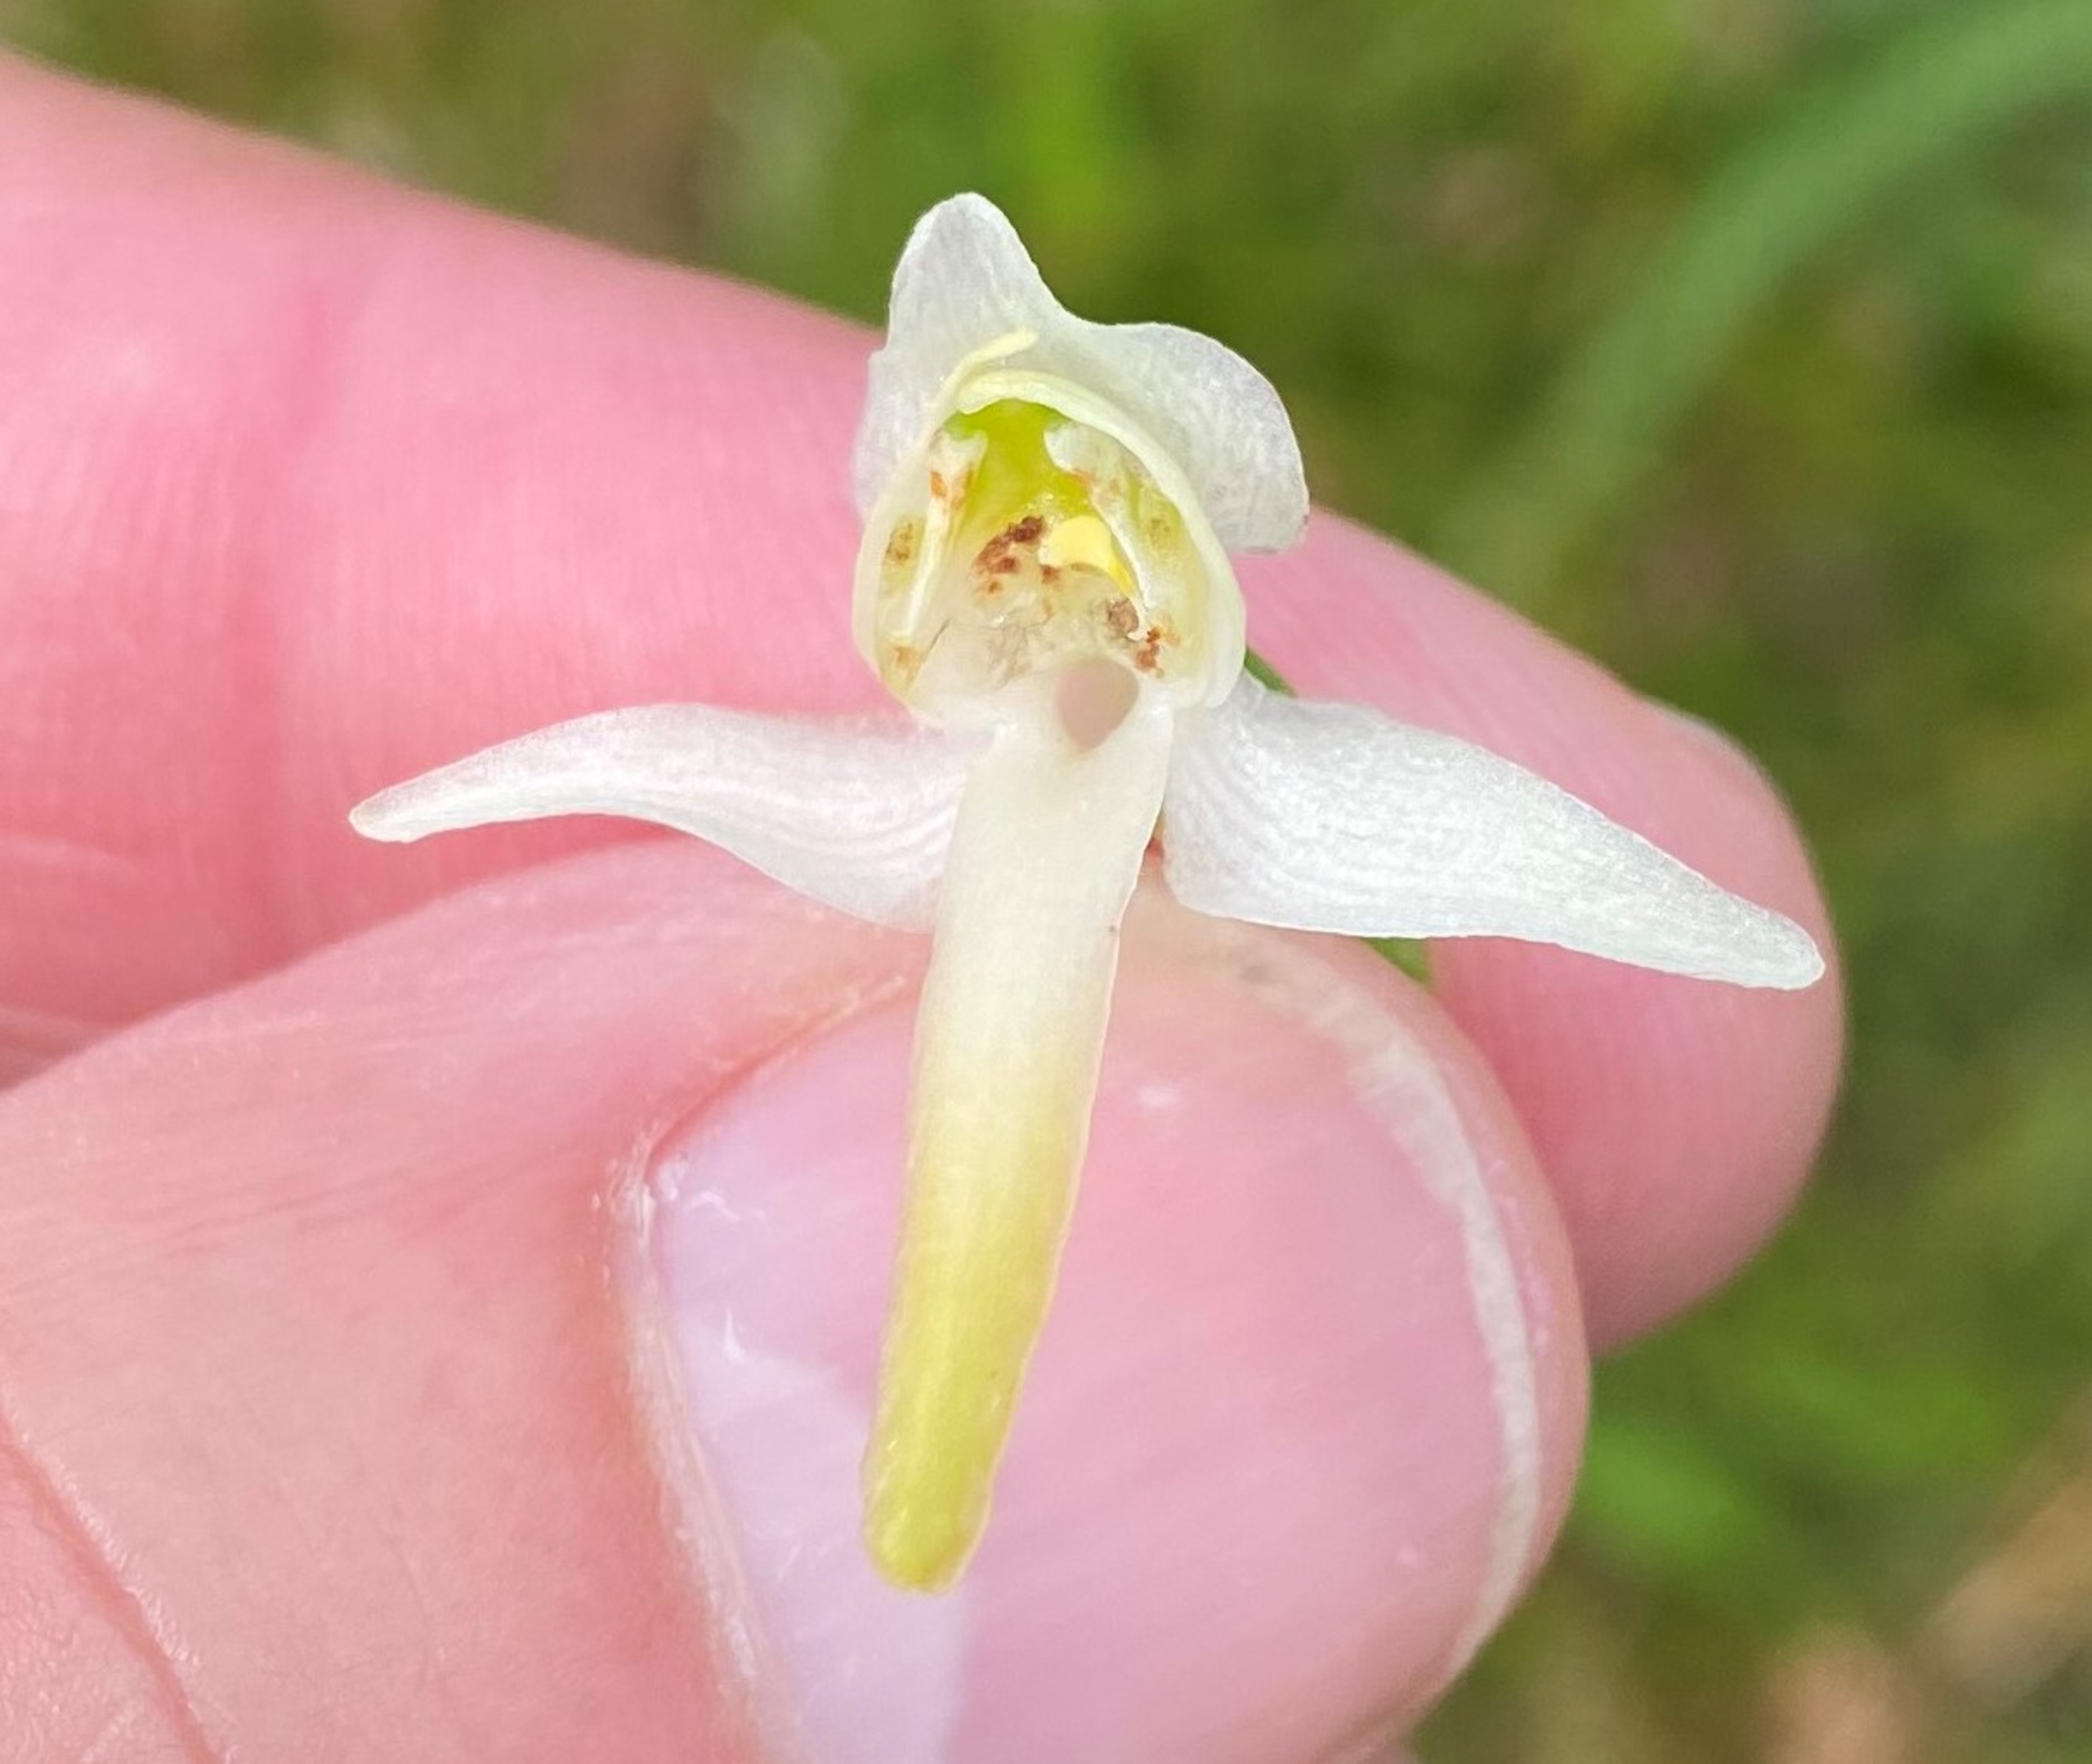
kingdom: Plantae
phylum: Tracheophyta
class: Liliopsida
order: Asparagales
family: Orchidaceae
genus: Platanthera
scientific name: Platanthera chlorantha
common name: Skov-gøgelilje
